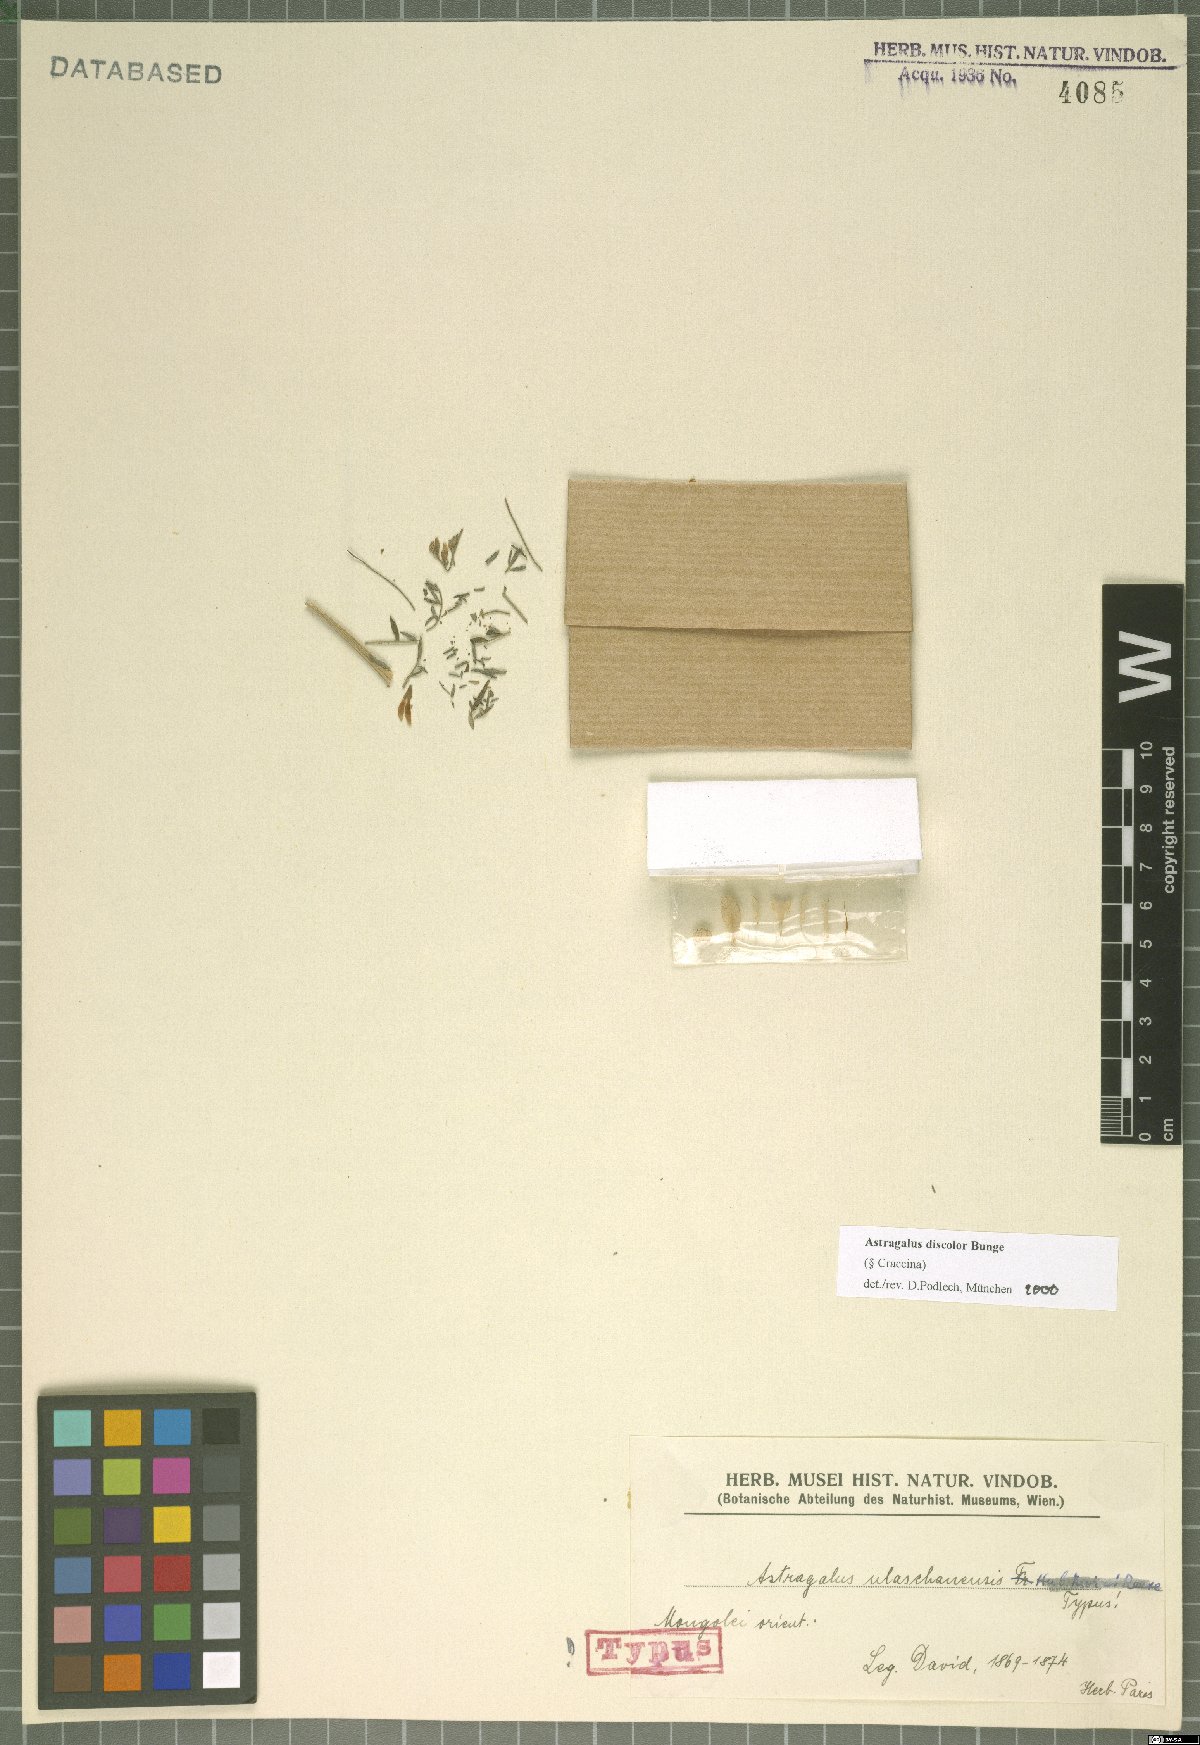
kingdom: Plantae
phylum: Tracheophyta
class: Magnoliopsida
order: Fabales
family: Fabaceae
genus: Astragalus
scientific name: Astragalus discolor
